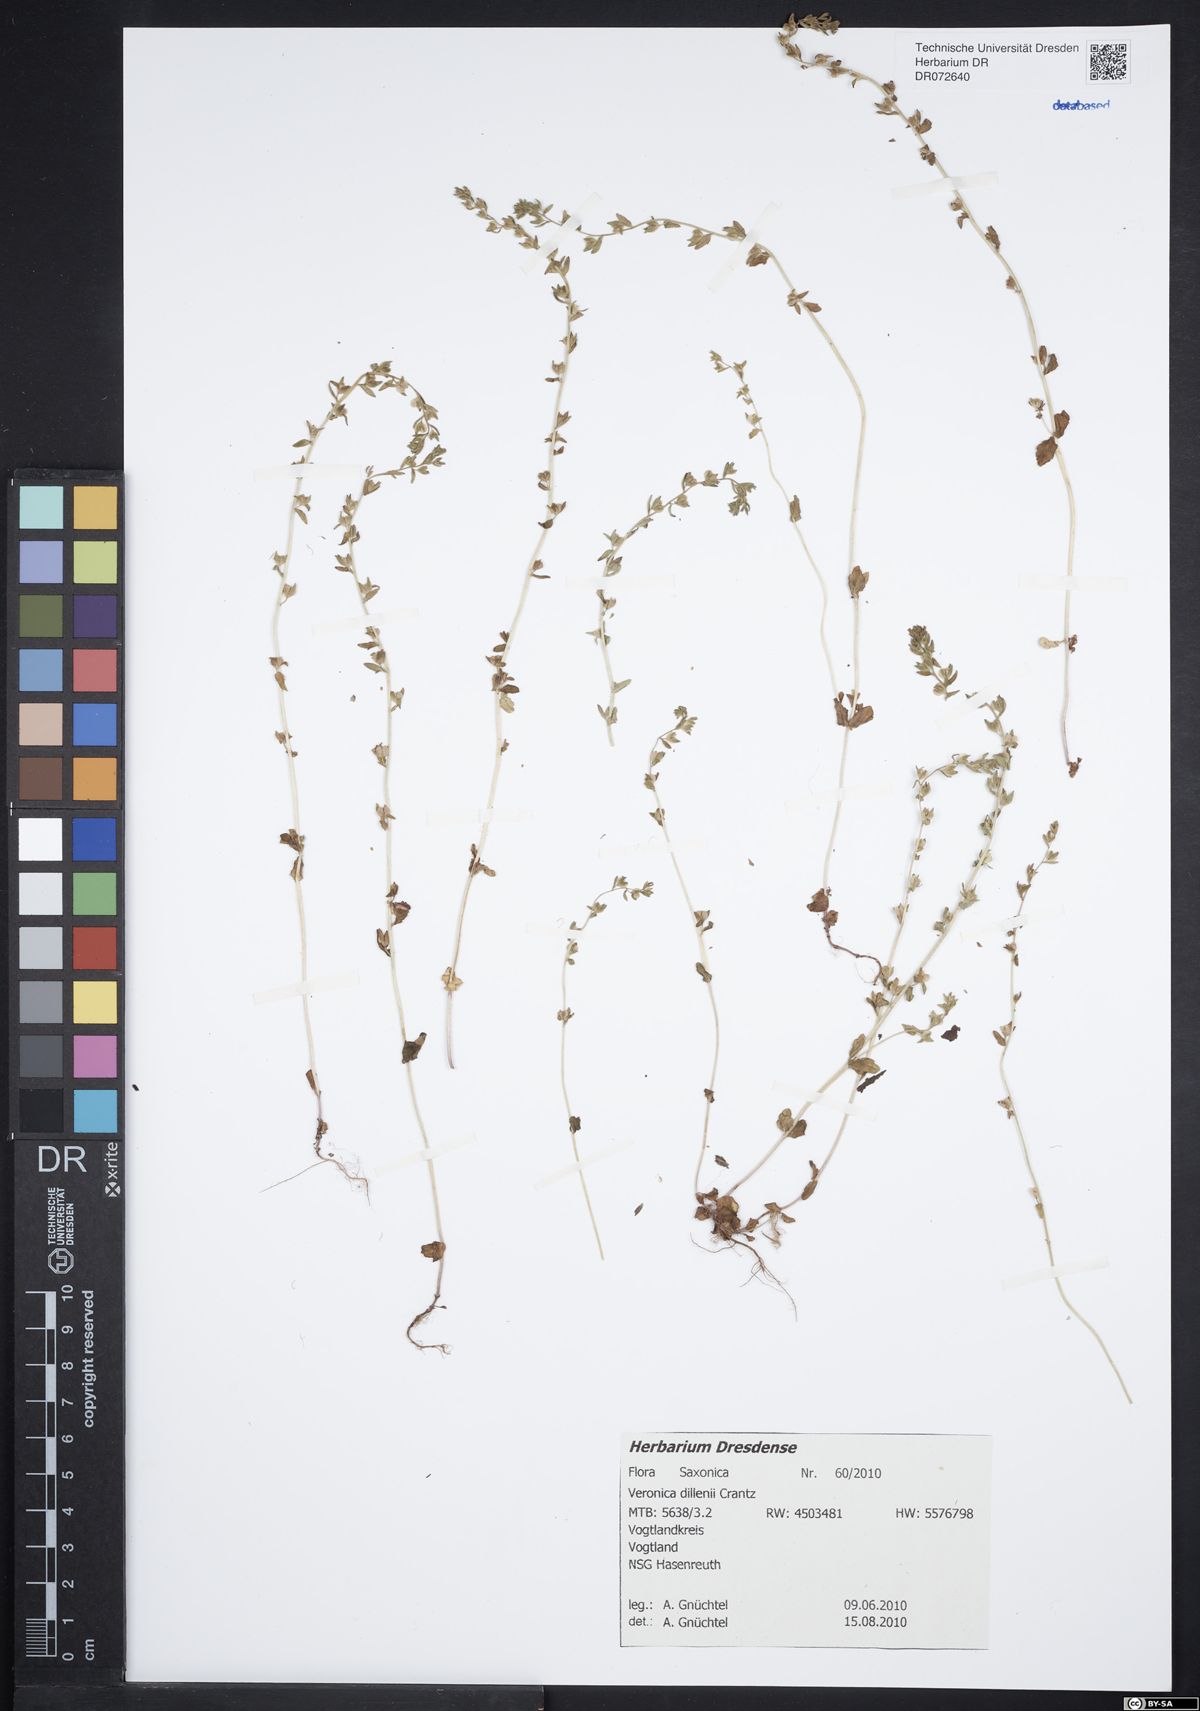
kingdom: Plantae
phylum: Tracheophyta
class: Magnoliopsida
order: Lamiales
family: Plantaginaceae
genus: Veronica
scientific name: Veronica dillenii
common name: Dillenius' speedwell
